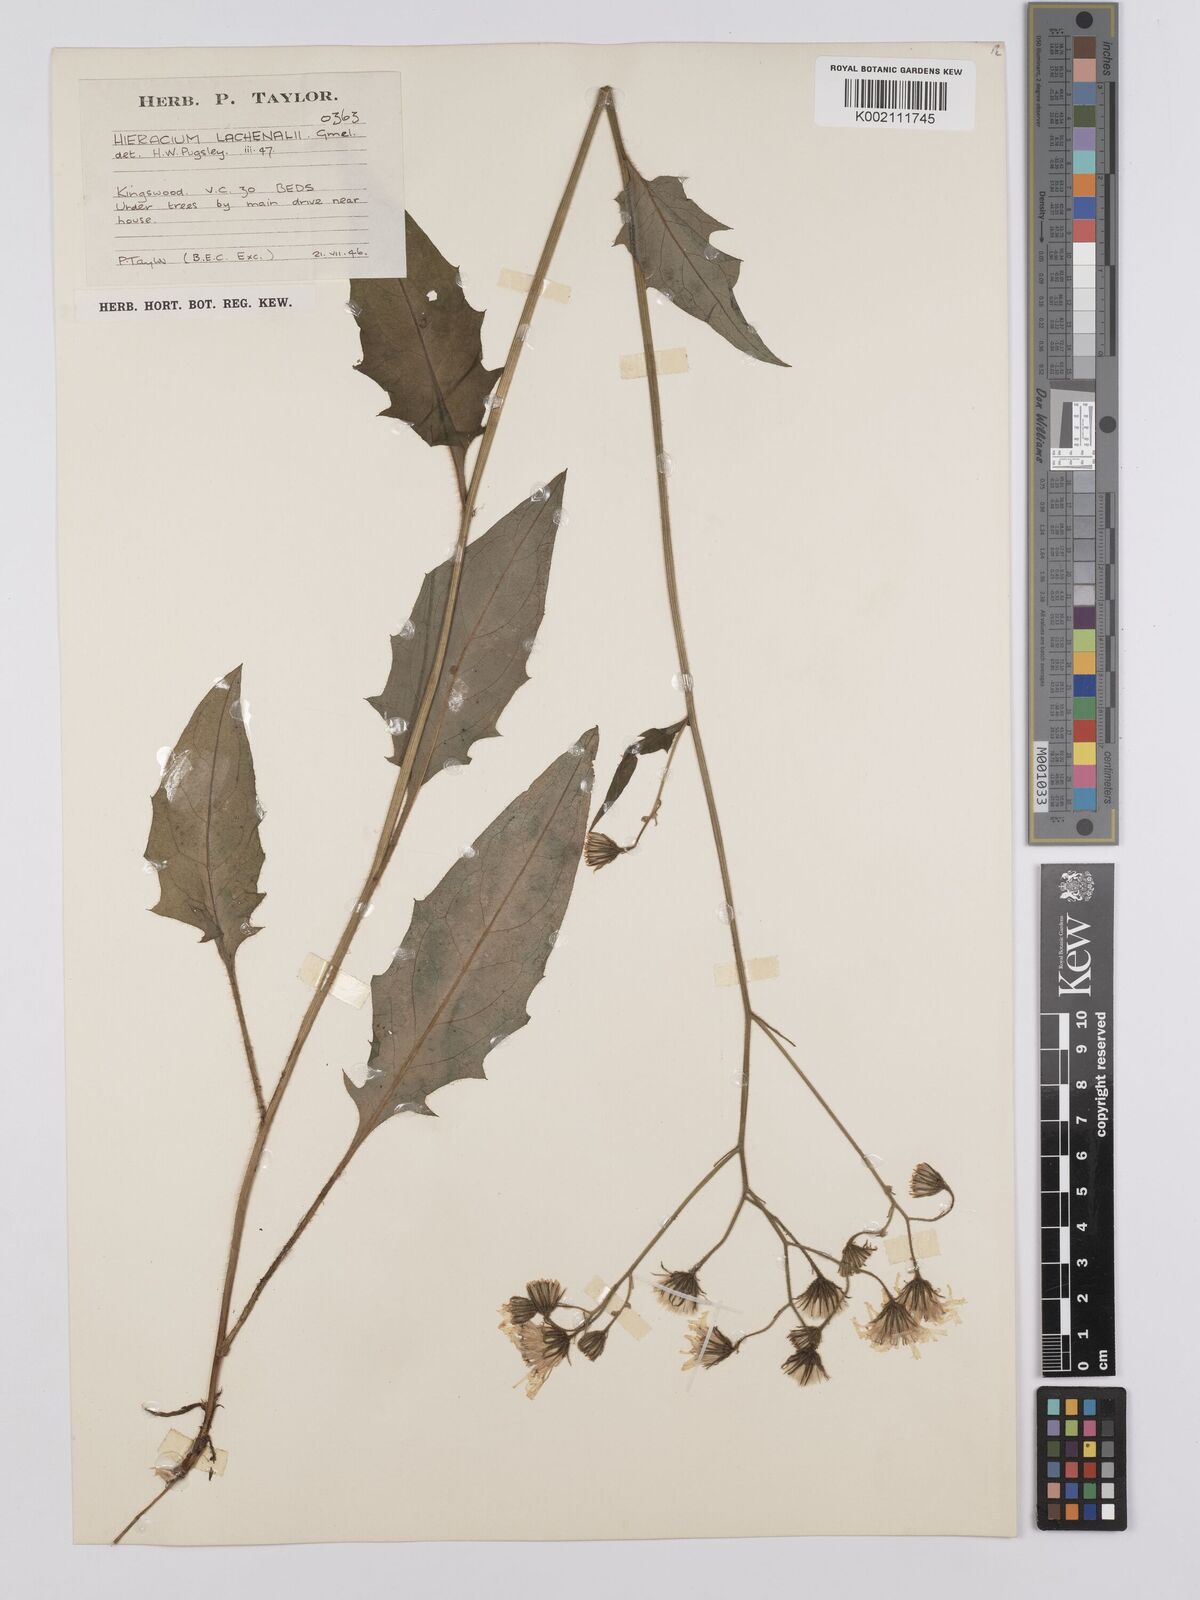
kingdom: Plantae
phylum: Tracheophyta
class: Magnoliopsida
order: Asterales
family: Asteraceae
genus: Hieracium
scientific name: Hieracium lachenalii
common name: Common hawkweed
